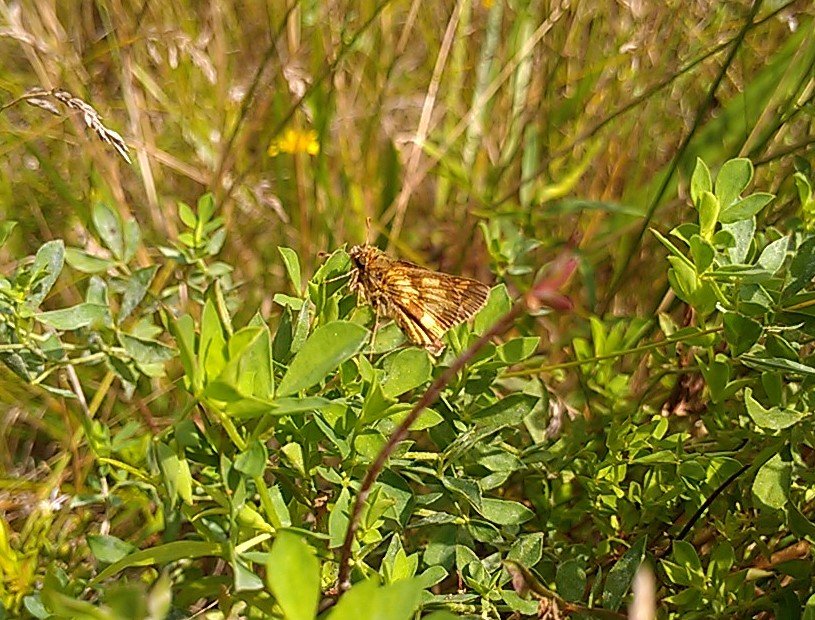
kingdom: Animalia
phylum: Arthropoda
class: Insecta
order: Lepidoptera
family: Hesperiidae
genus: Polites
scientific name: Polites coras
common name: Peck's Skipper
